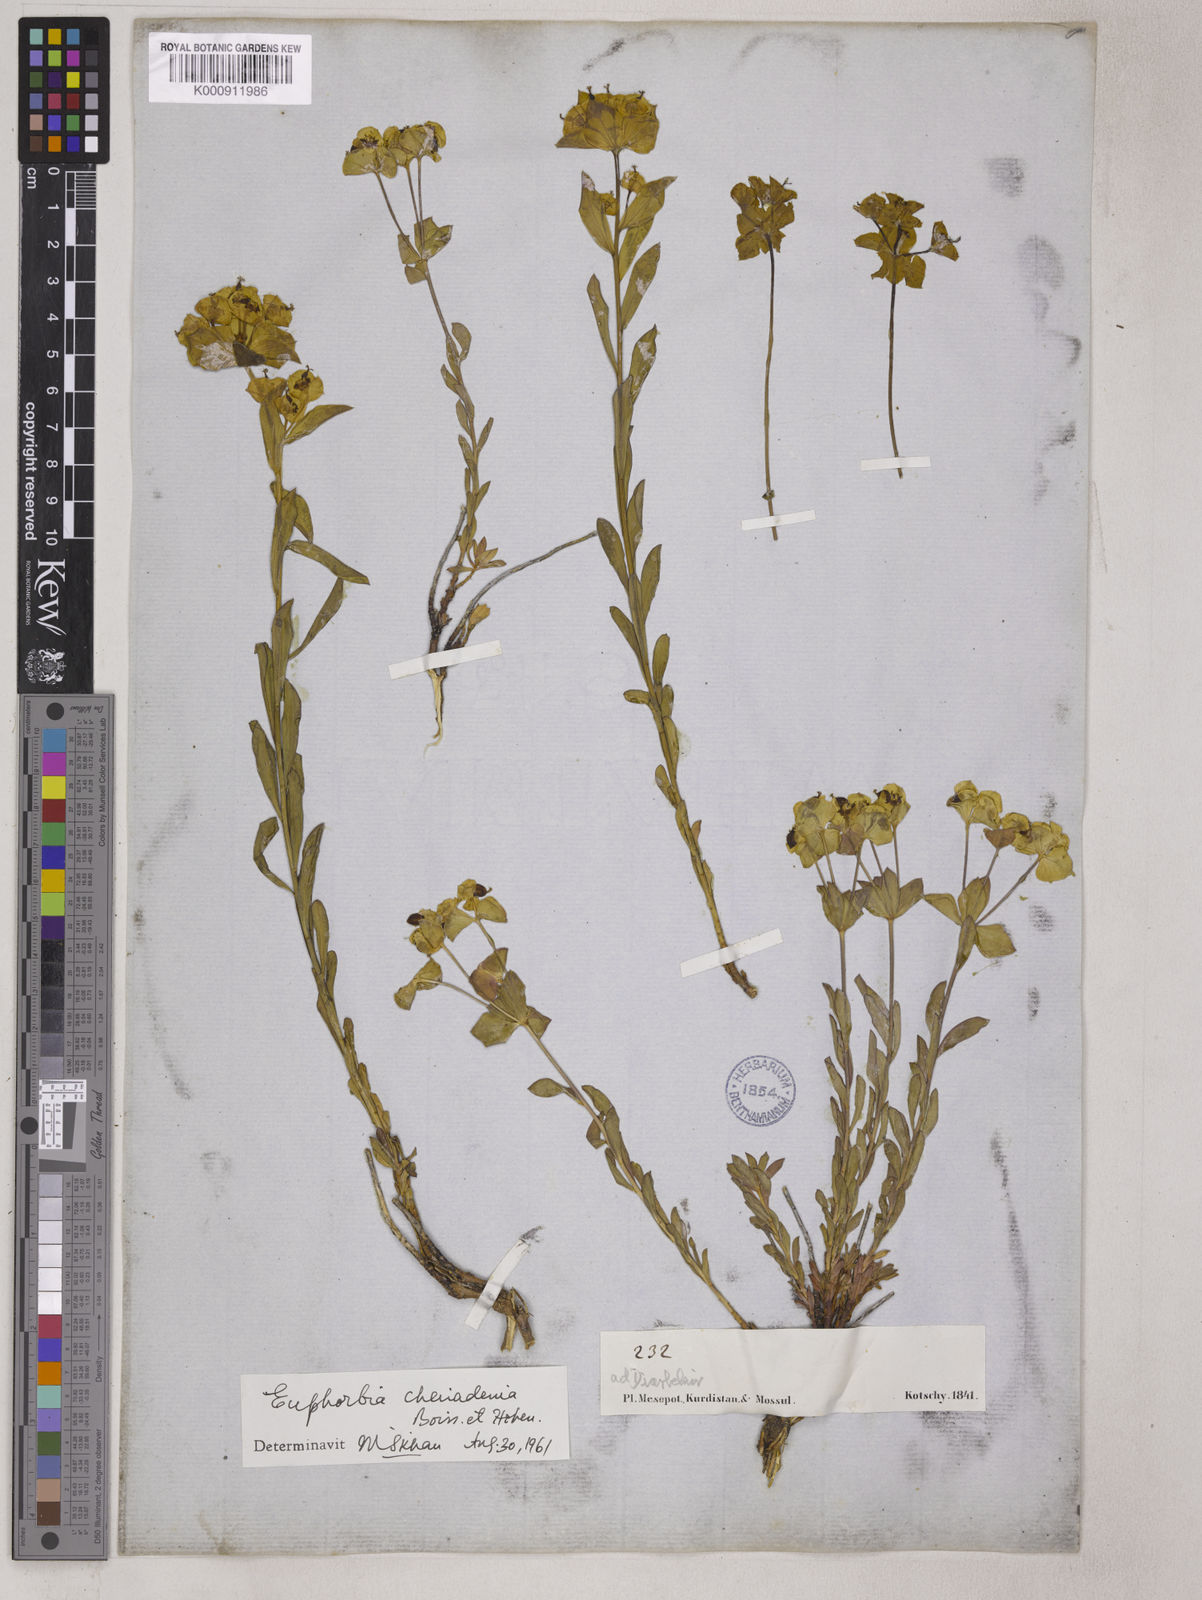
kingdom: Plantae
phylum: Tracheophyta
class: Magnoliopsida
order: Malpighiales
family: Euphorbiaceae
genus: Euphorbia
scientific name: Euphorbia cheiradenia
